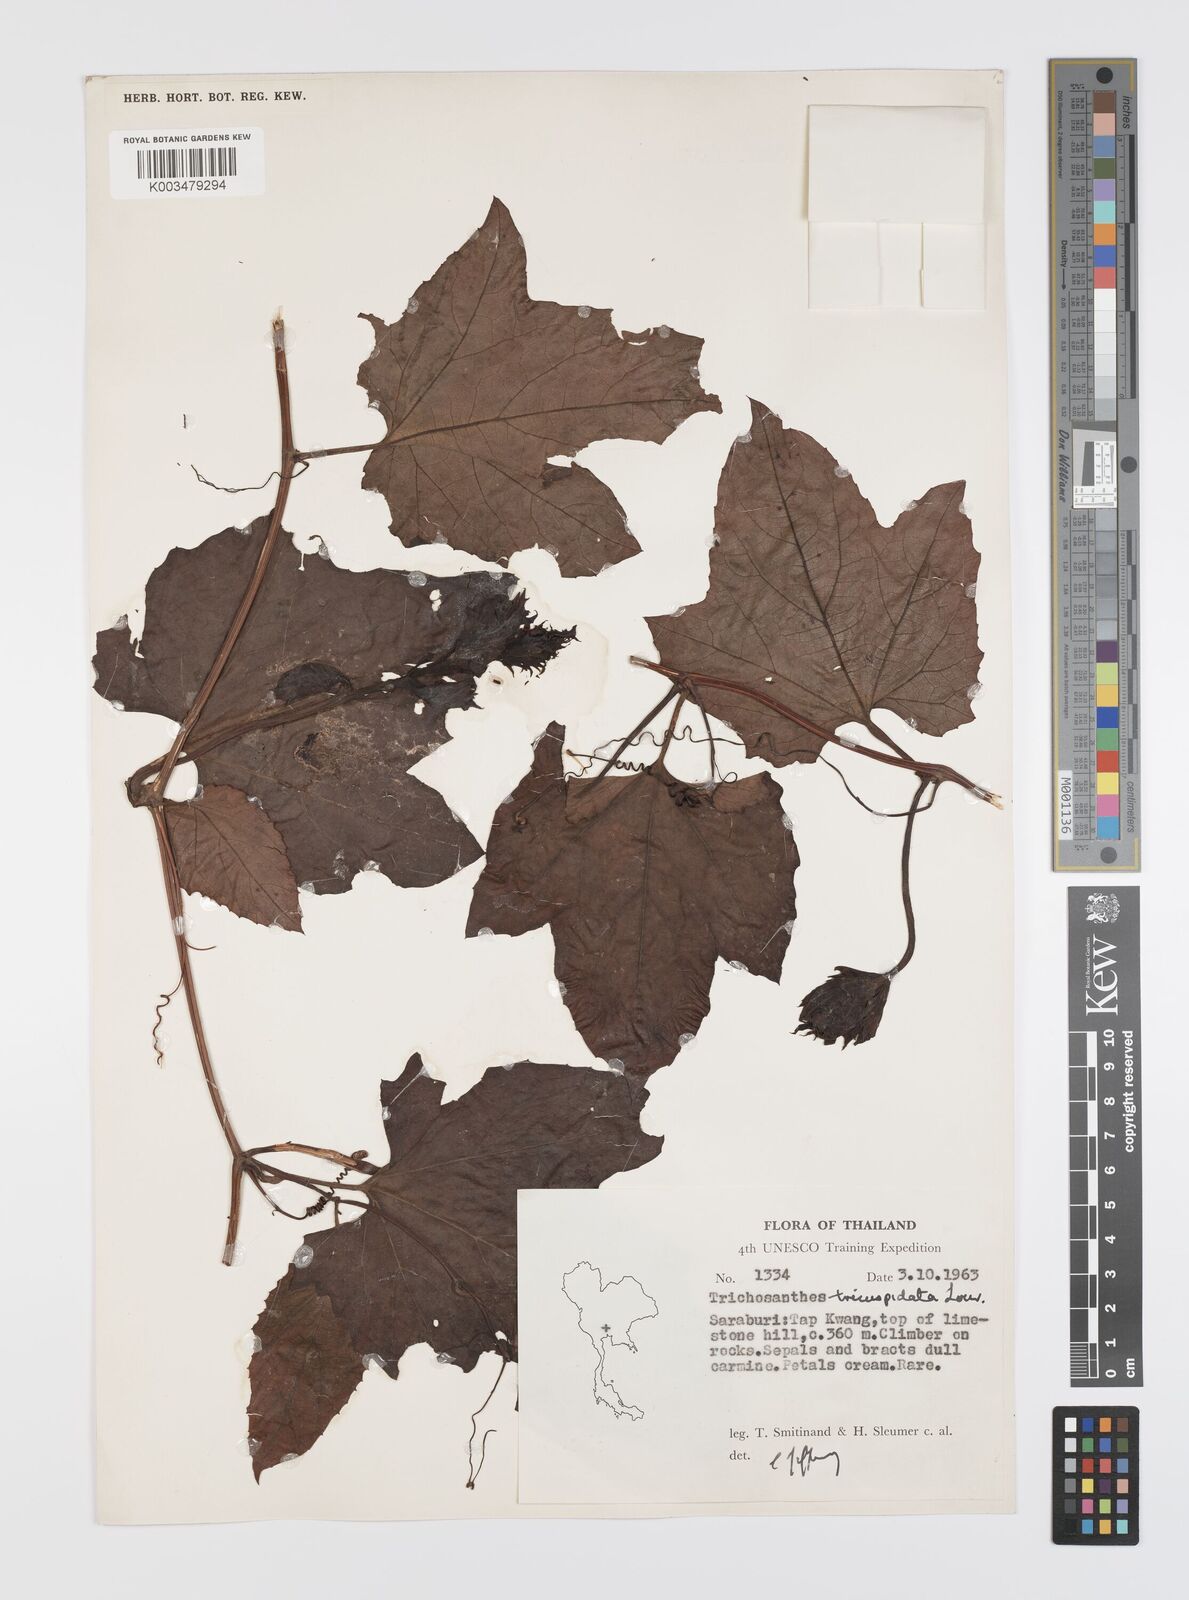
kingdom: Plantae
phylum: Tracheophyta
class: Magnoliopsida
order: Cucurbitales
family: Cucurbitaceae
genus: Trichosanthes
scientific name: Trichosanthes rubriflos
